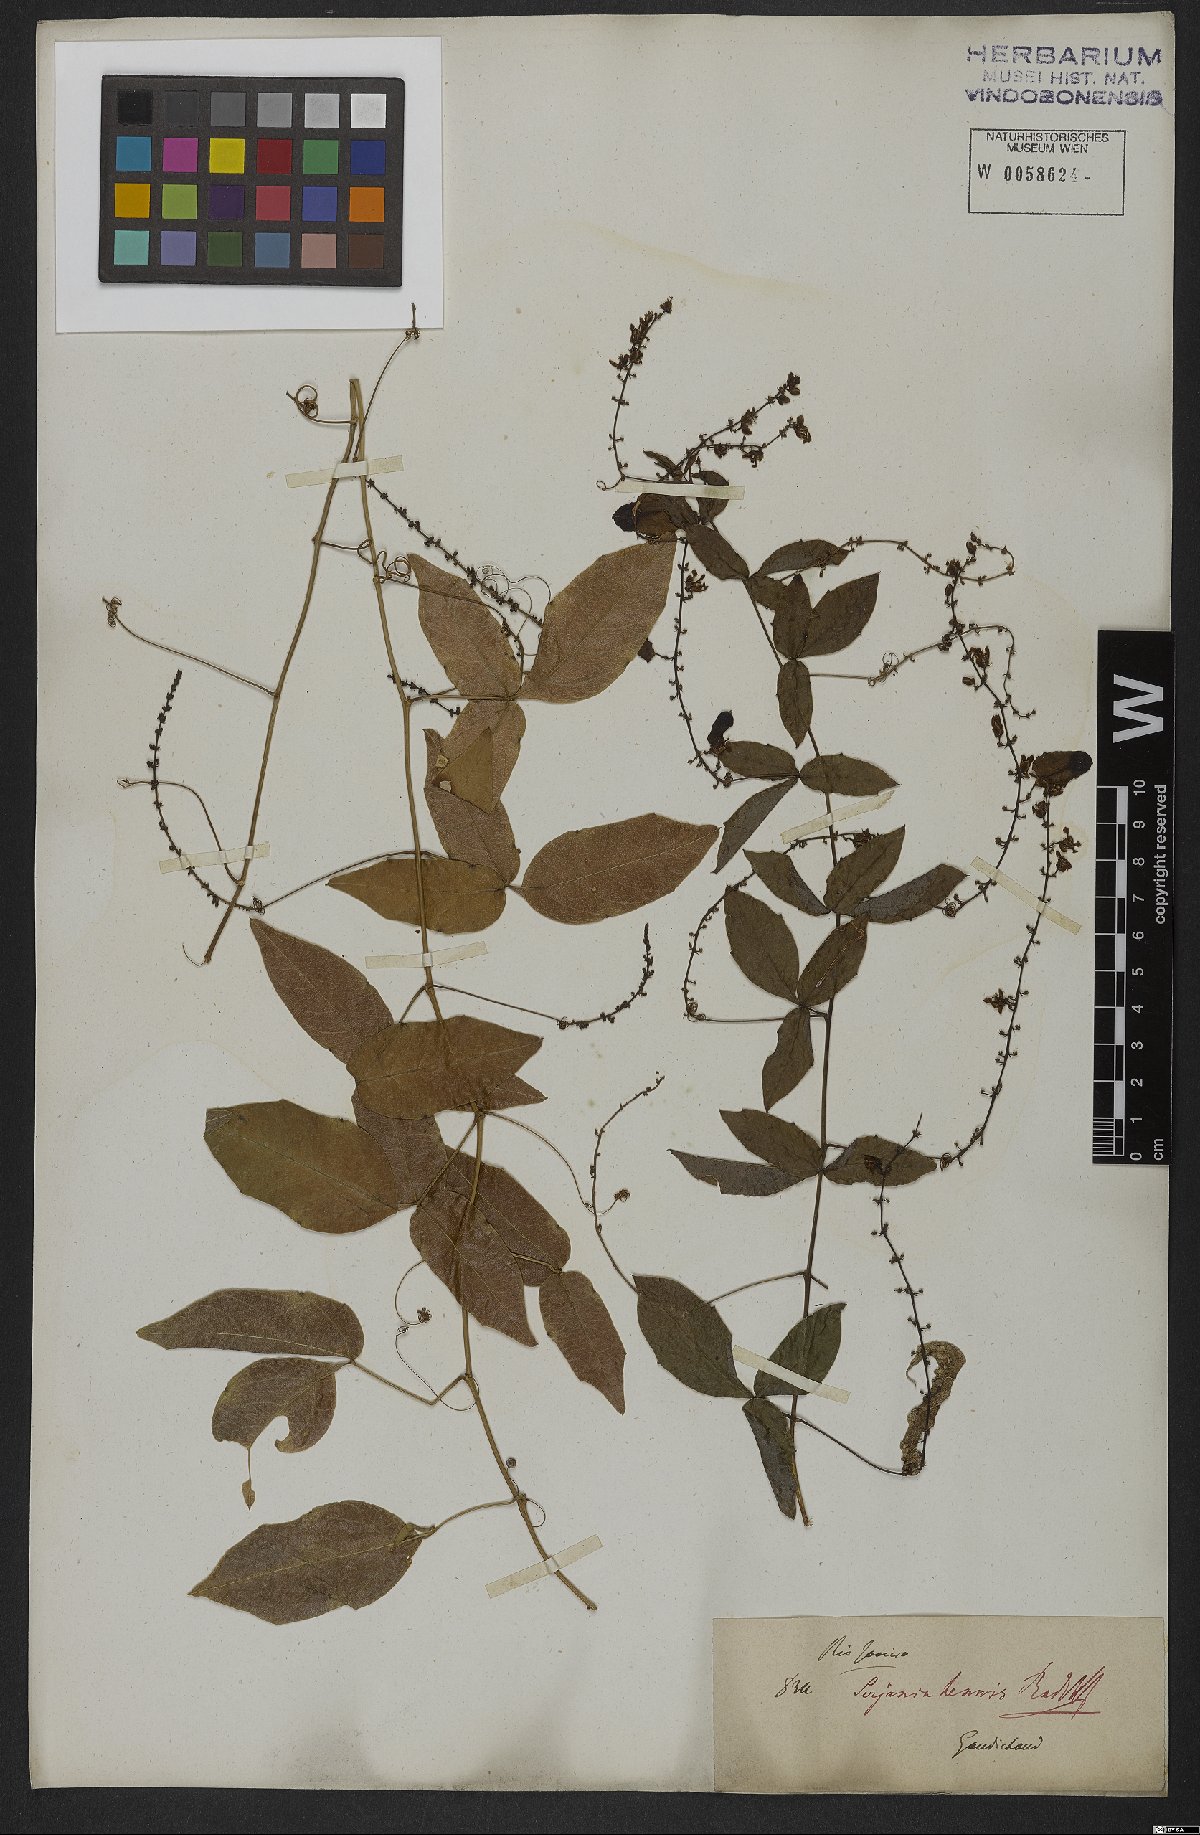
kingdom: Plantae
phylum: Tracheophyta
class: Magnoliopsida
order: Sapindales
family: Sapindaceae
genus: Serjania
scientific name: Serjania tenuis
